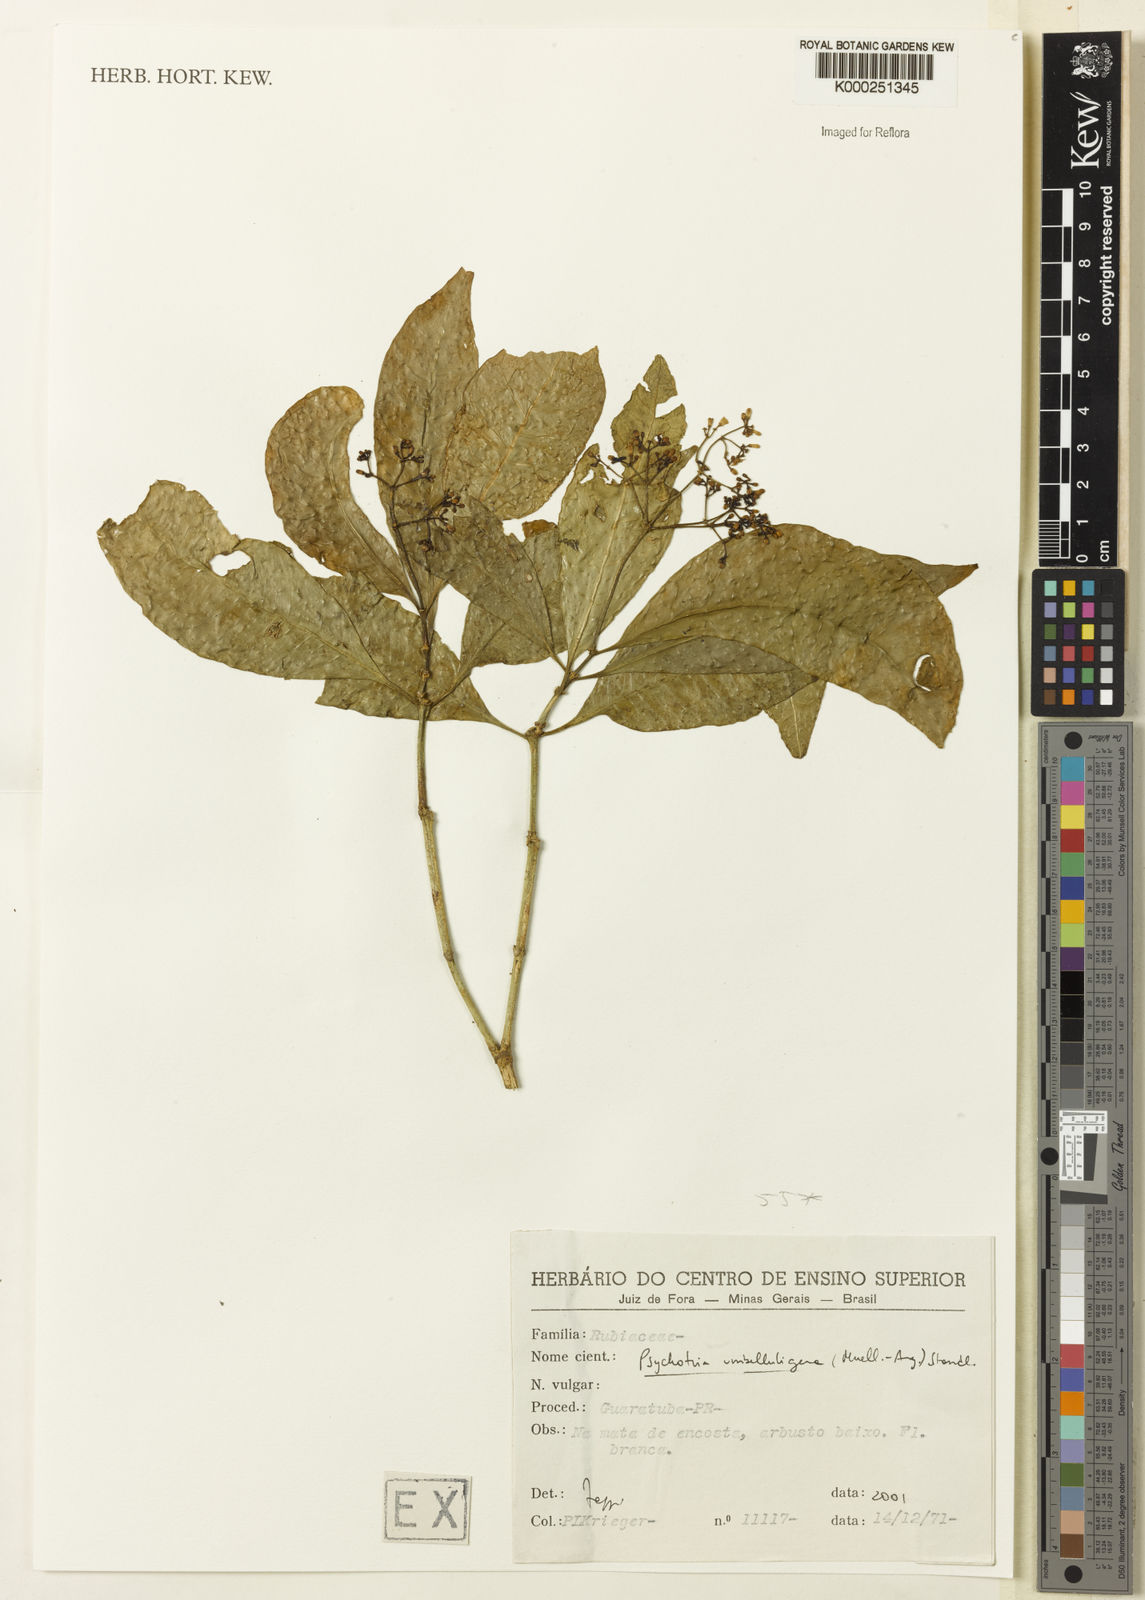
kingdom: Plantae
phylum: Tracheophyta
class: Magnoliopsida
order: Gentianales
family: Rubiaceae
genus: Psychotria
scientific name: Psychotria nemorosa
